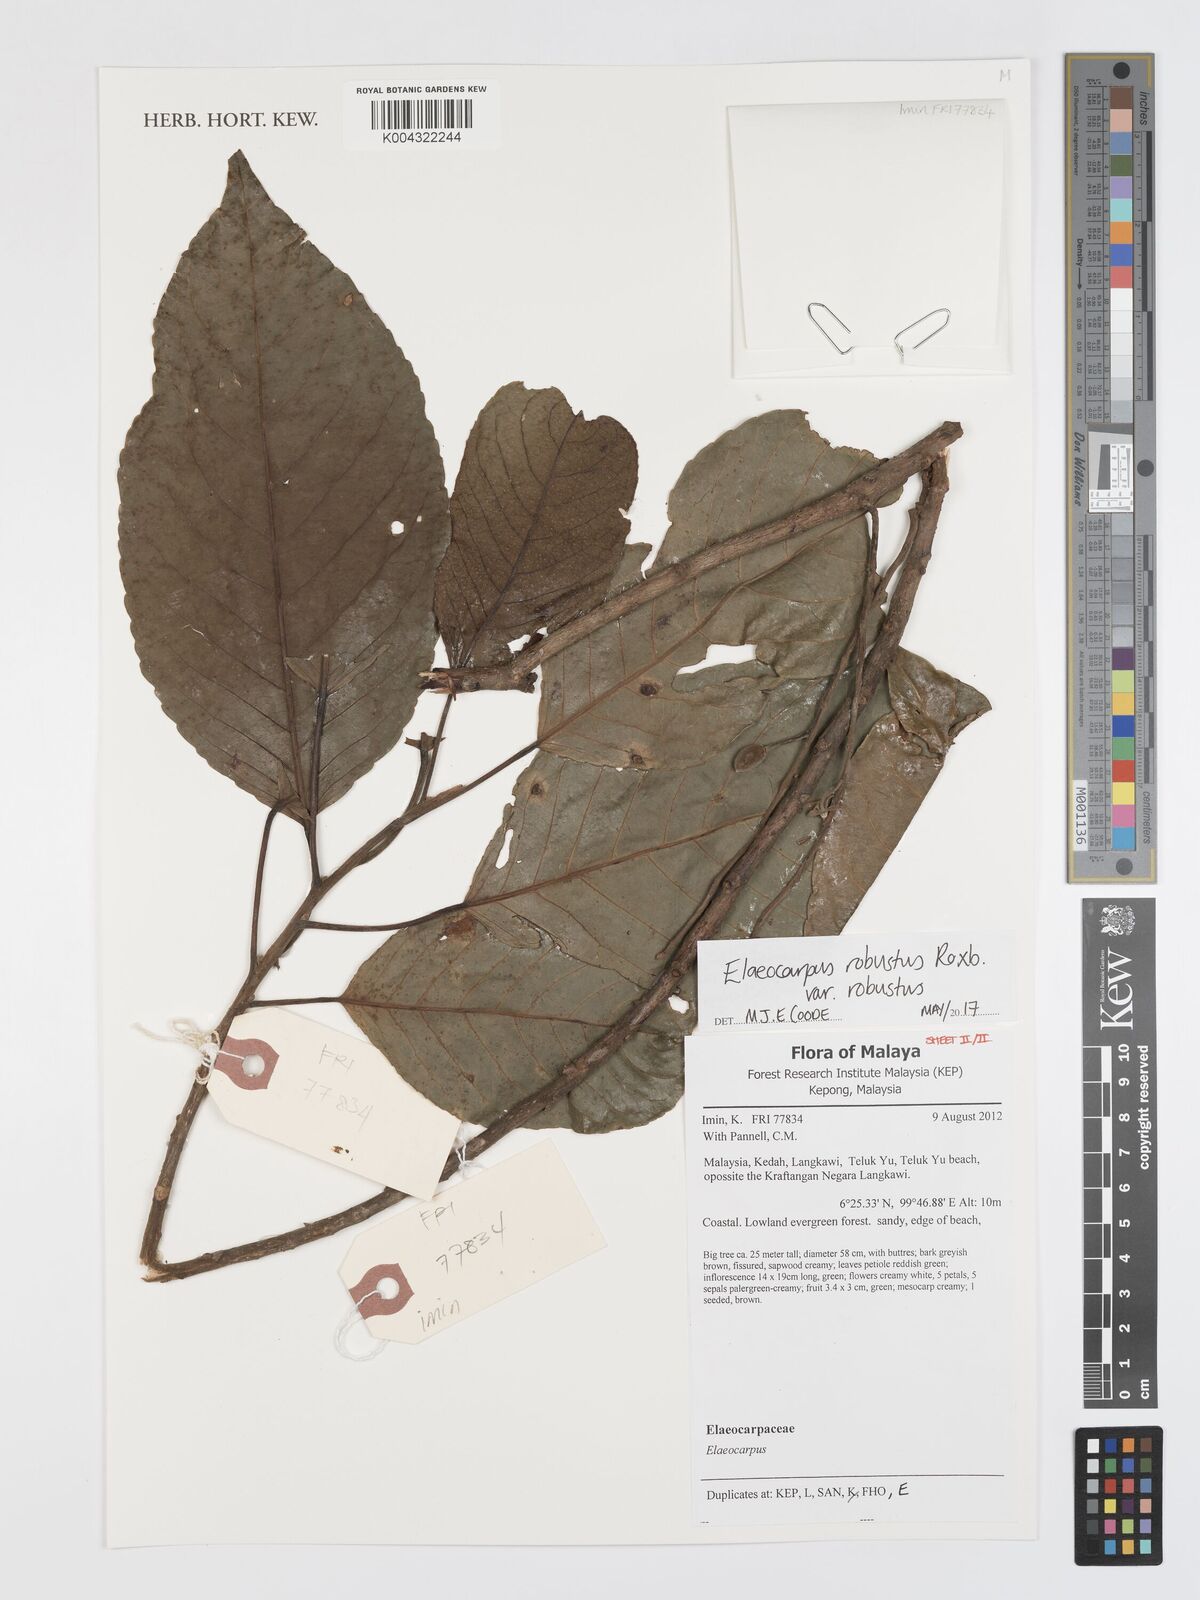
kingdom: Plantae
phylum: Tracheophyta
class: Magnoliopsida
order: Oxalidales
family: Elaeocarpaceae
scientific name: Elaeocarpaceae
